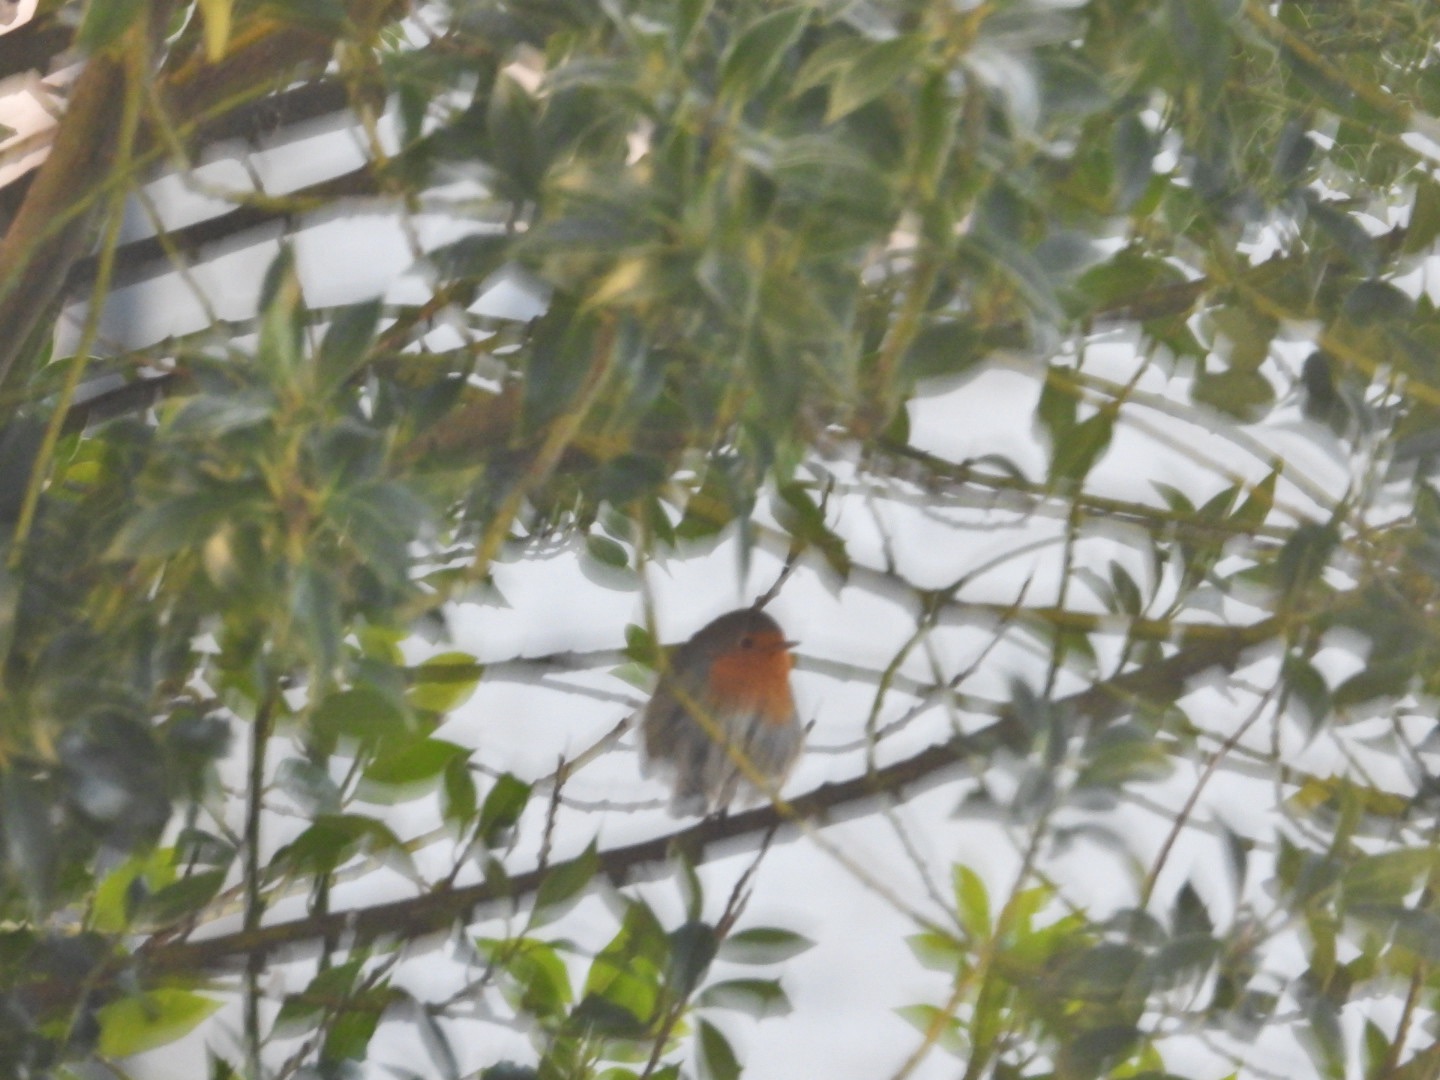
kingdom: Animalia
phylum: Chordata
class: Aves
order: Passeriformes
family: Muscicapidae
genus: Erithacus
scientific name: Erithacus rubecula
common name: Rødhals/rødkælk
